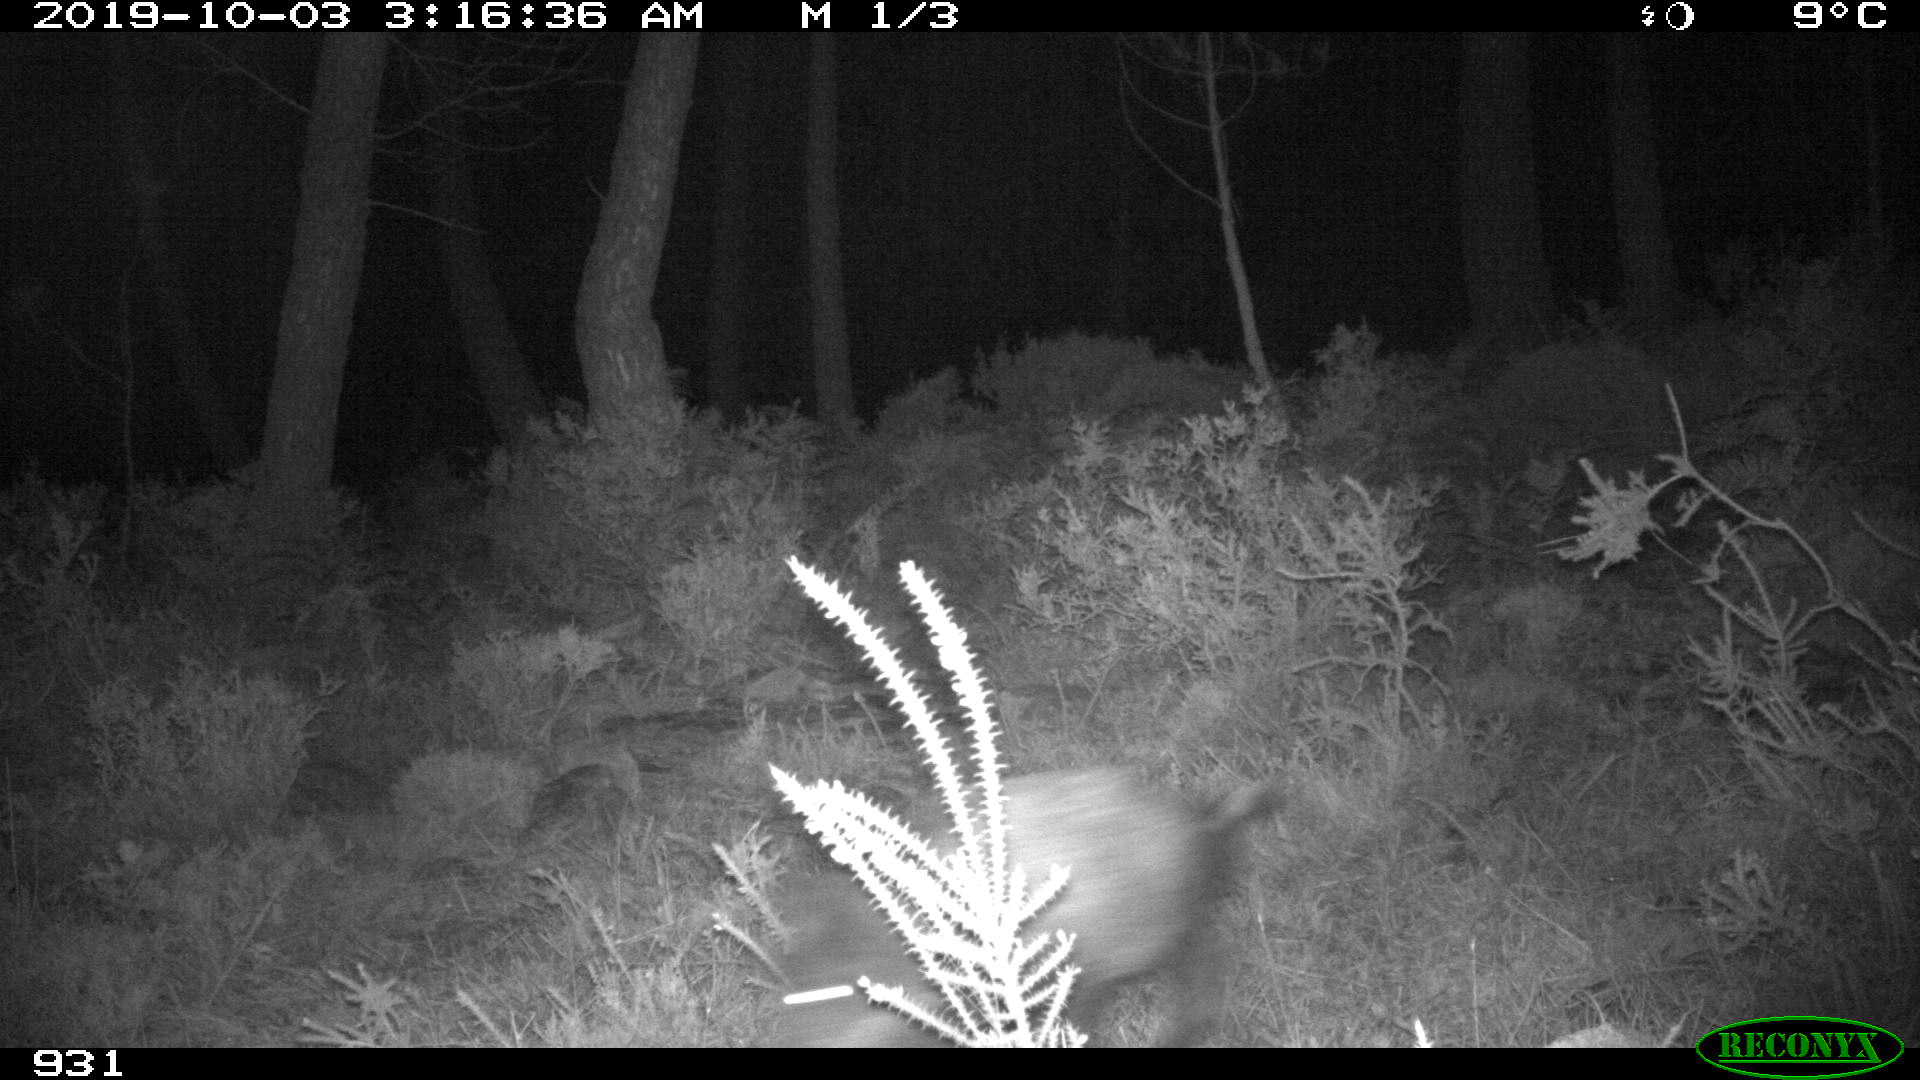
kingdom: Animalia
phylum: Chordata
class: Mammalia
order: Artiodactyla
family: Suidae
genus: Sus
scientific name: Sus scrofa
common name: Wild boar
